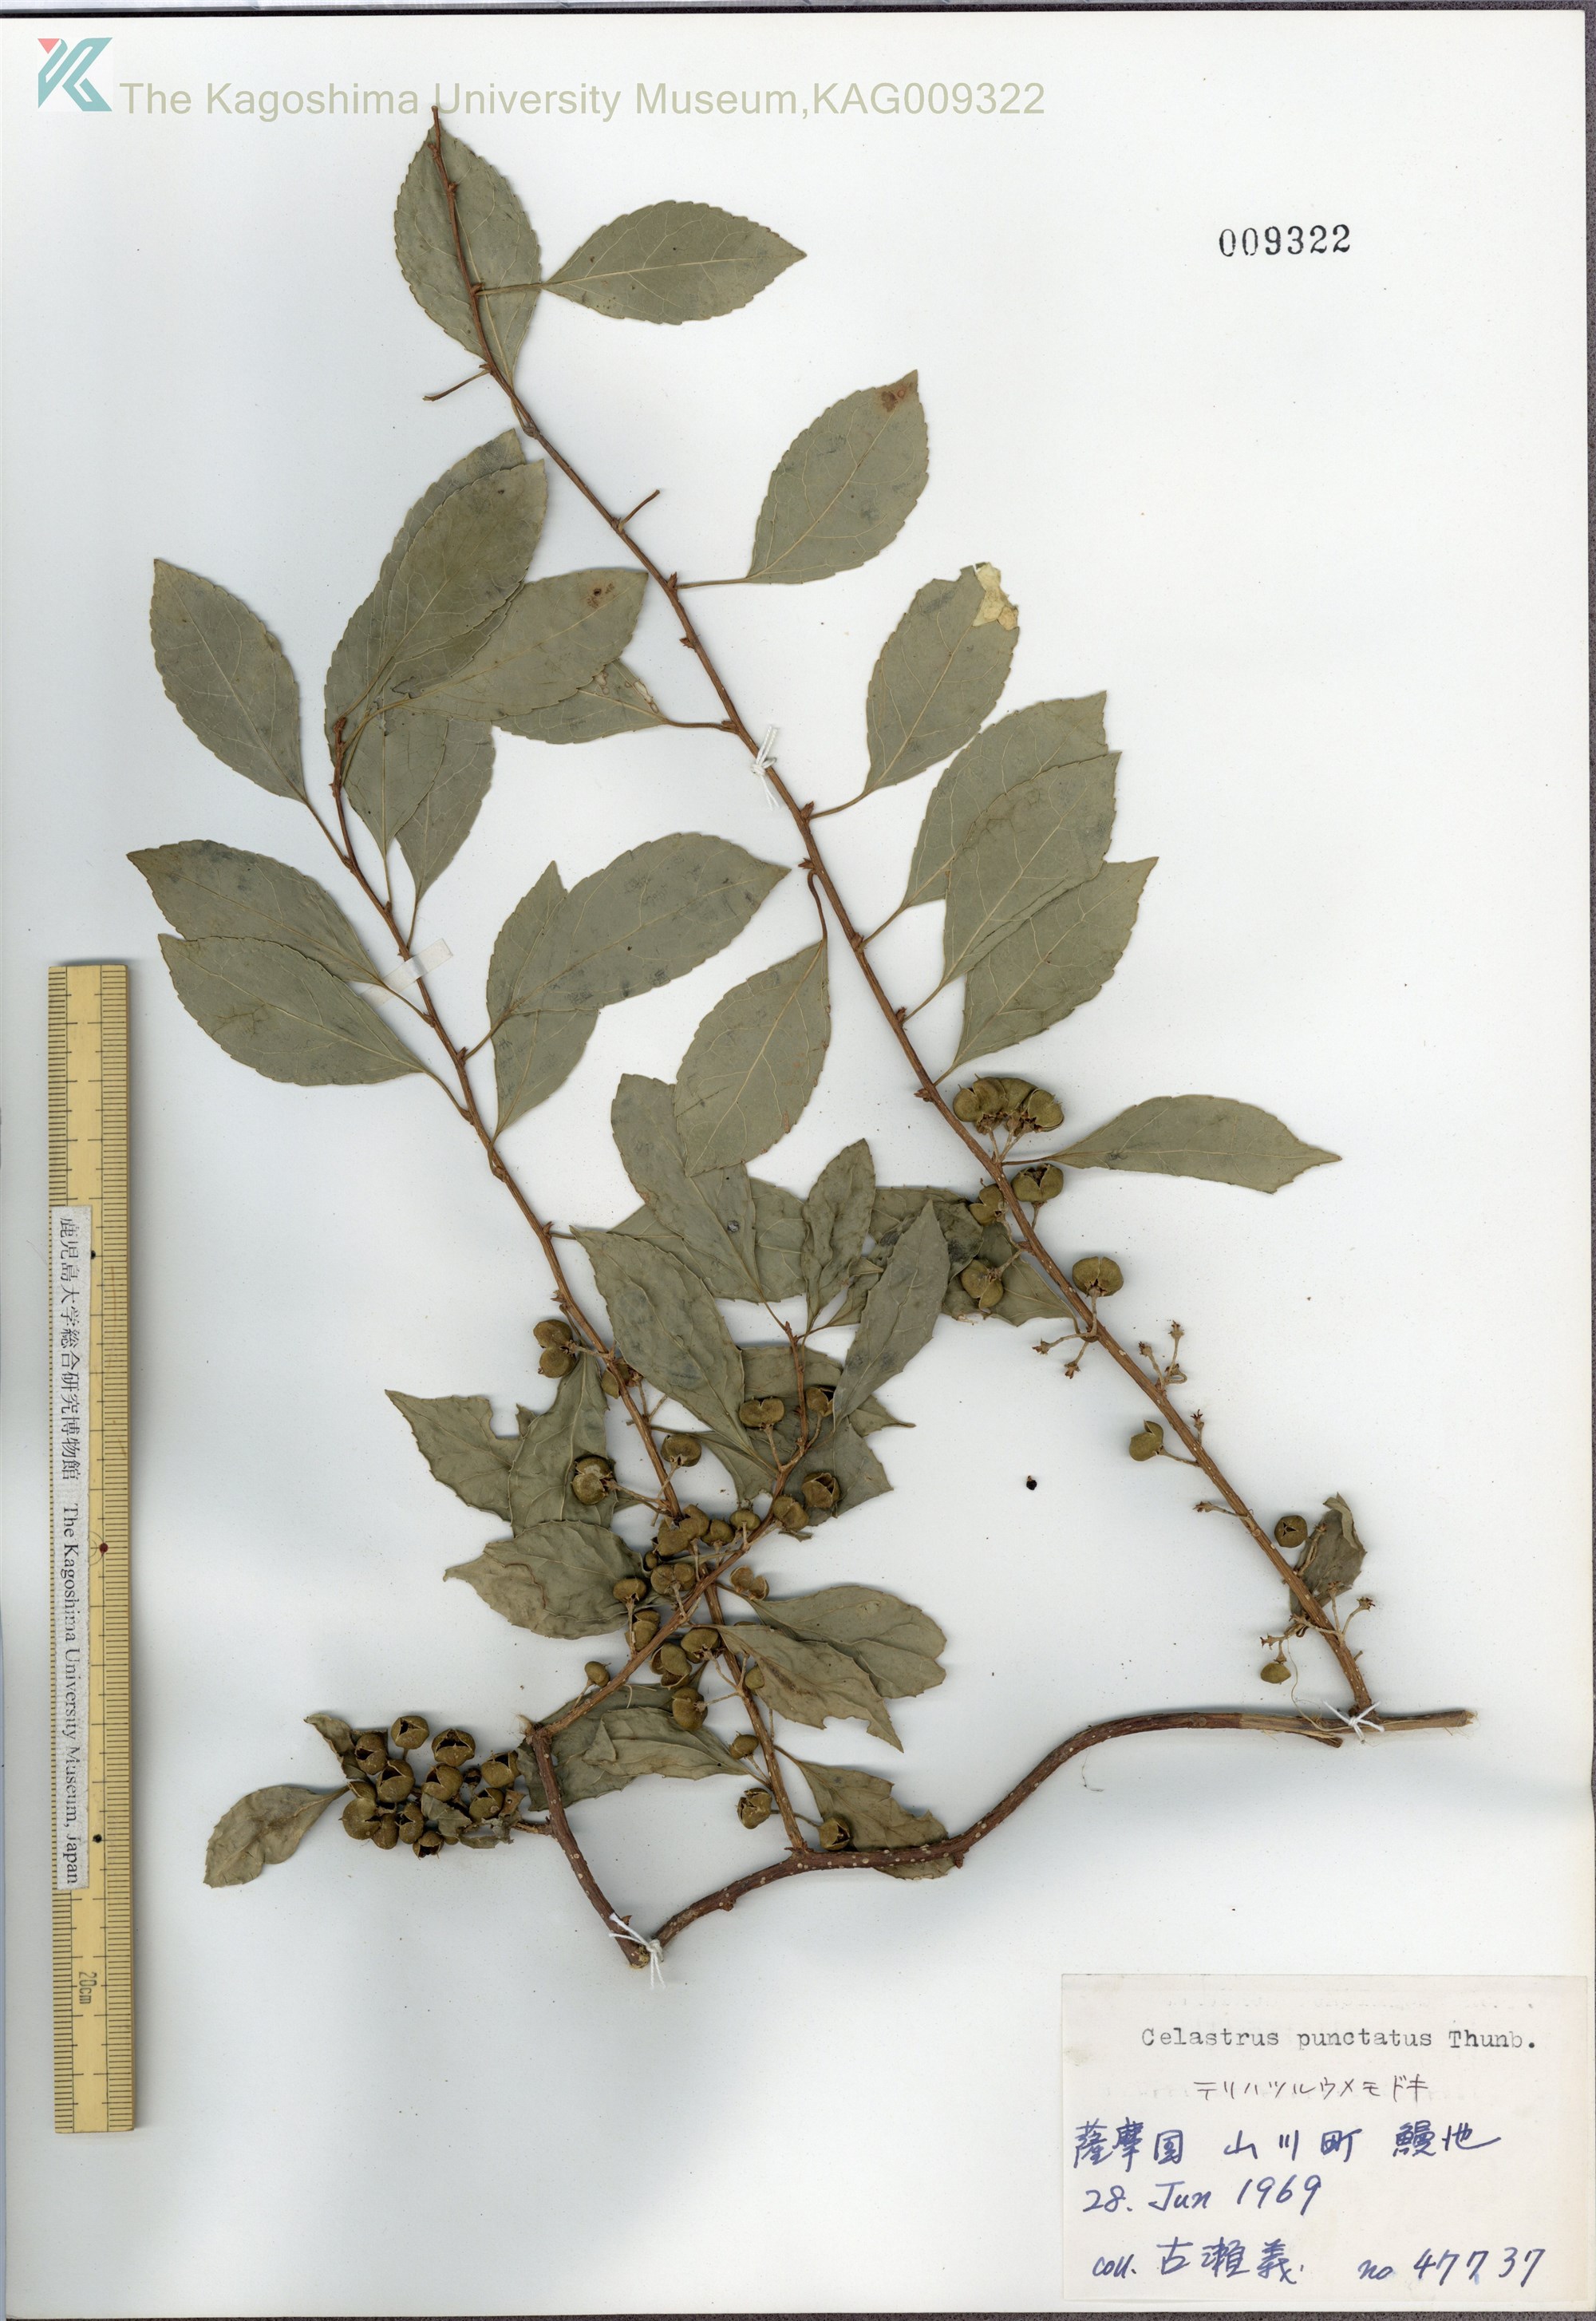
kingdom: Plantae
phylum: Tracheophyta
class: Magnoliopsida
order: Celastrales
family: Celastraceae
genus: Celastrus
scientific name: Celastrus punctatus
